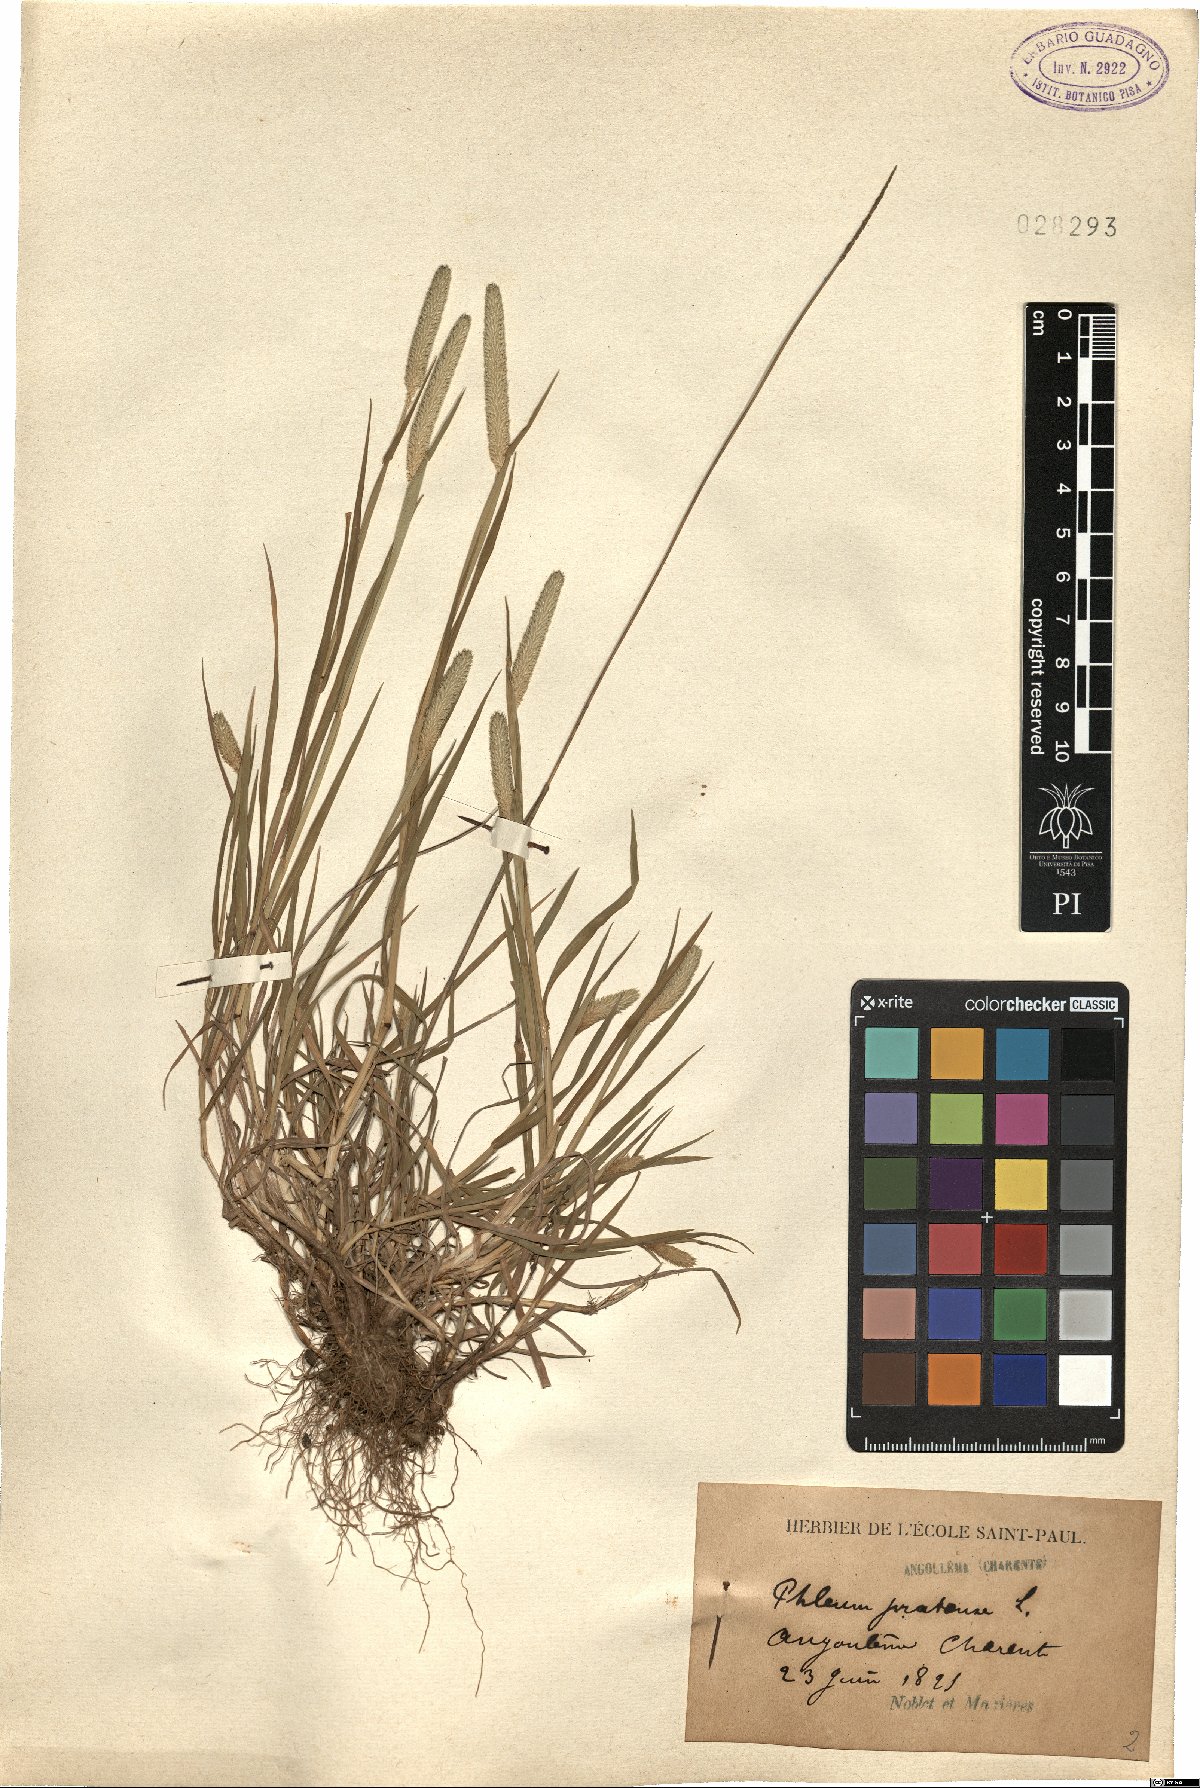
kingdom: Plantae
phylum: Tracheophyta
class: Liliopsida
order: Poales
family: Poaceae
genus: Phleum
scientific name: Phleum pratense
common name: Timothy grass
